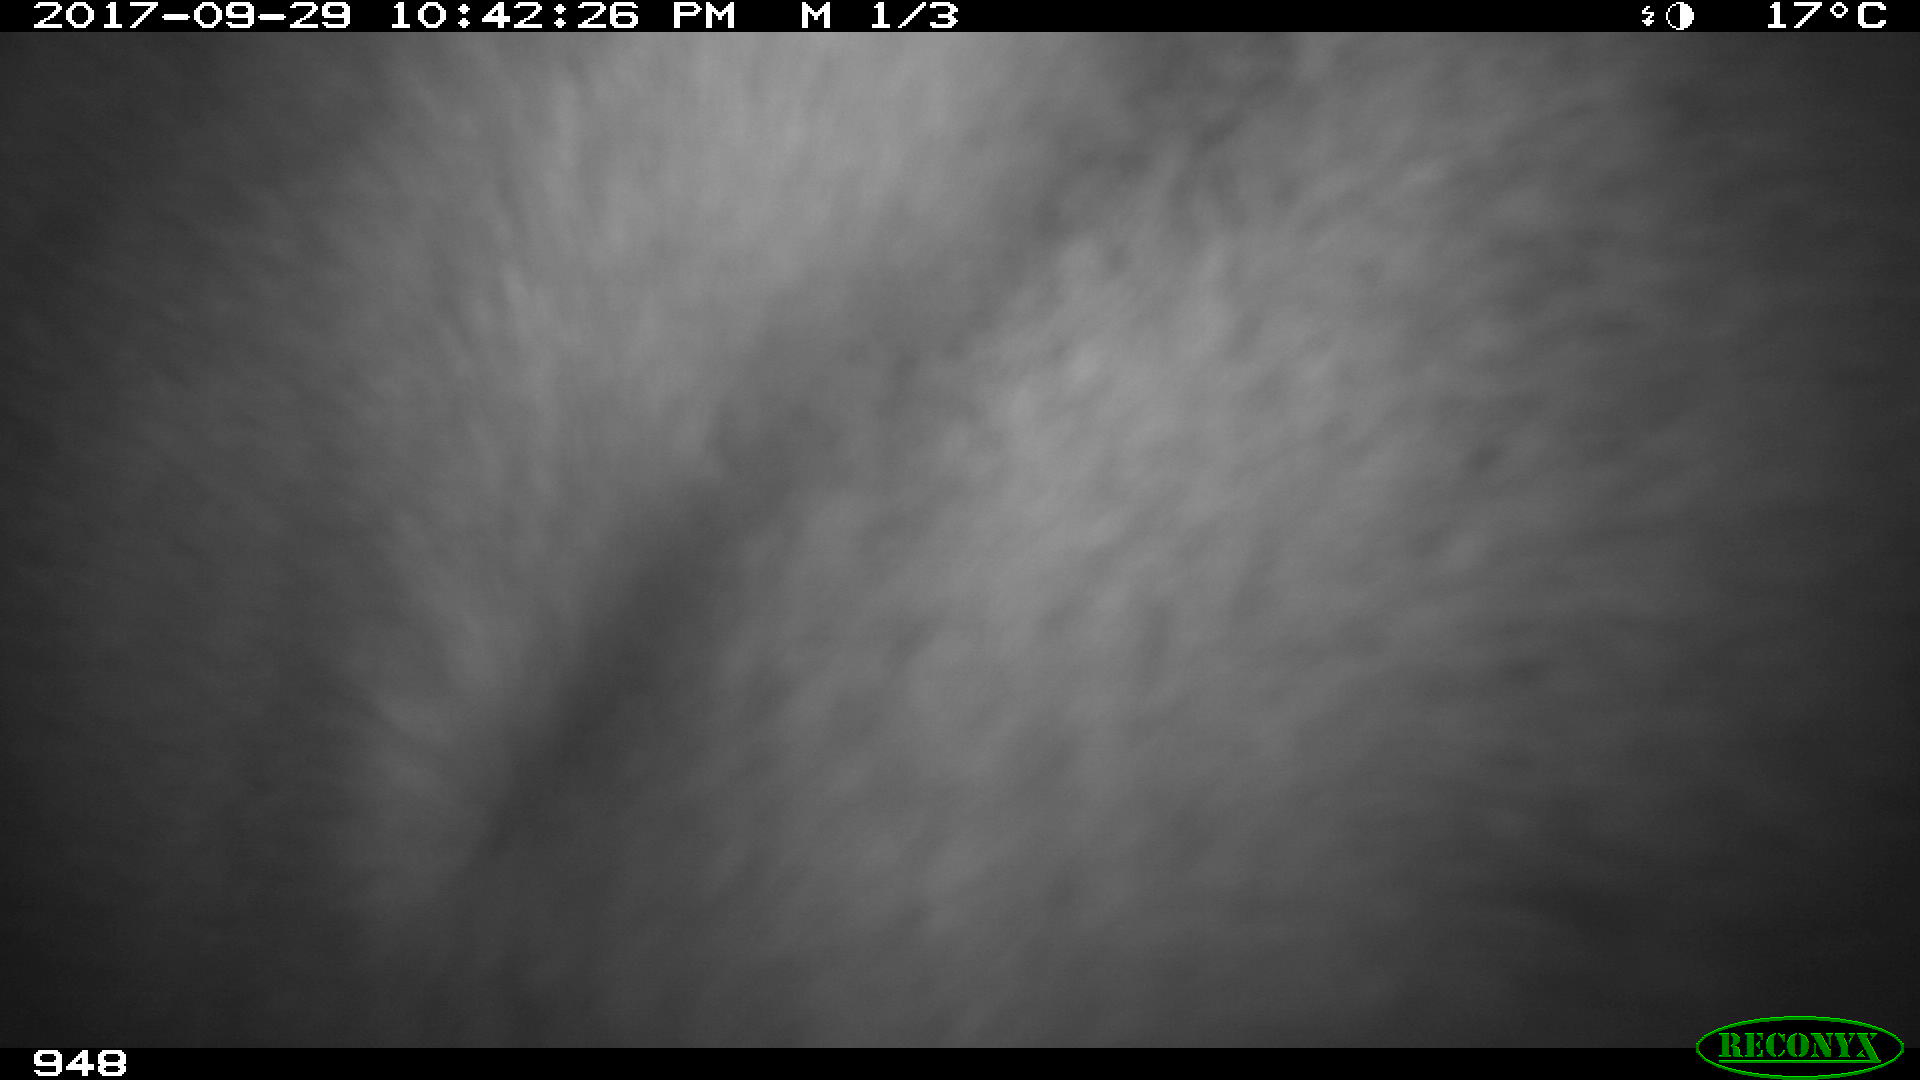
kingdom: Animalia
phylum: Chordata
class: Mammalia
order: Perissodactyla
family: Equidae
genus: Equus
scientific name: Equus caballus
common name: Horse
